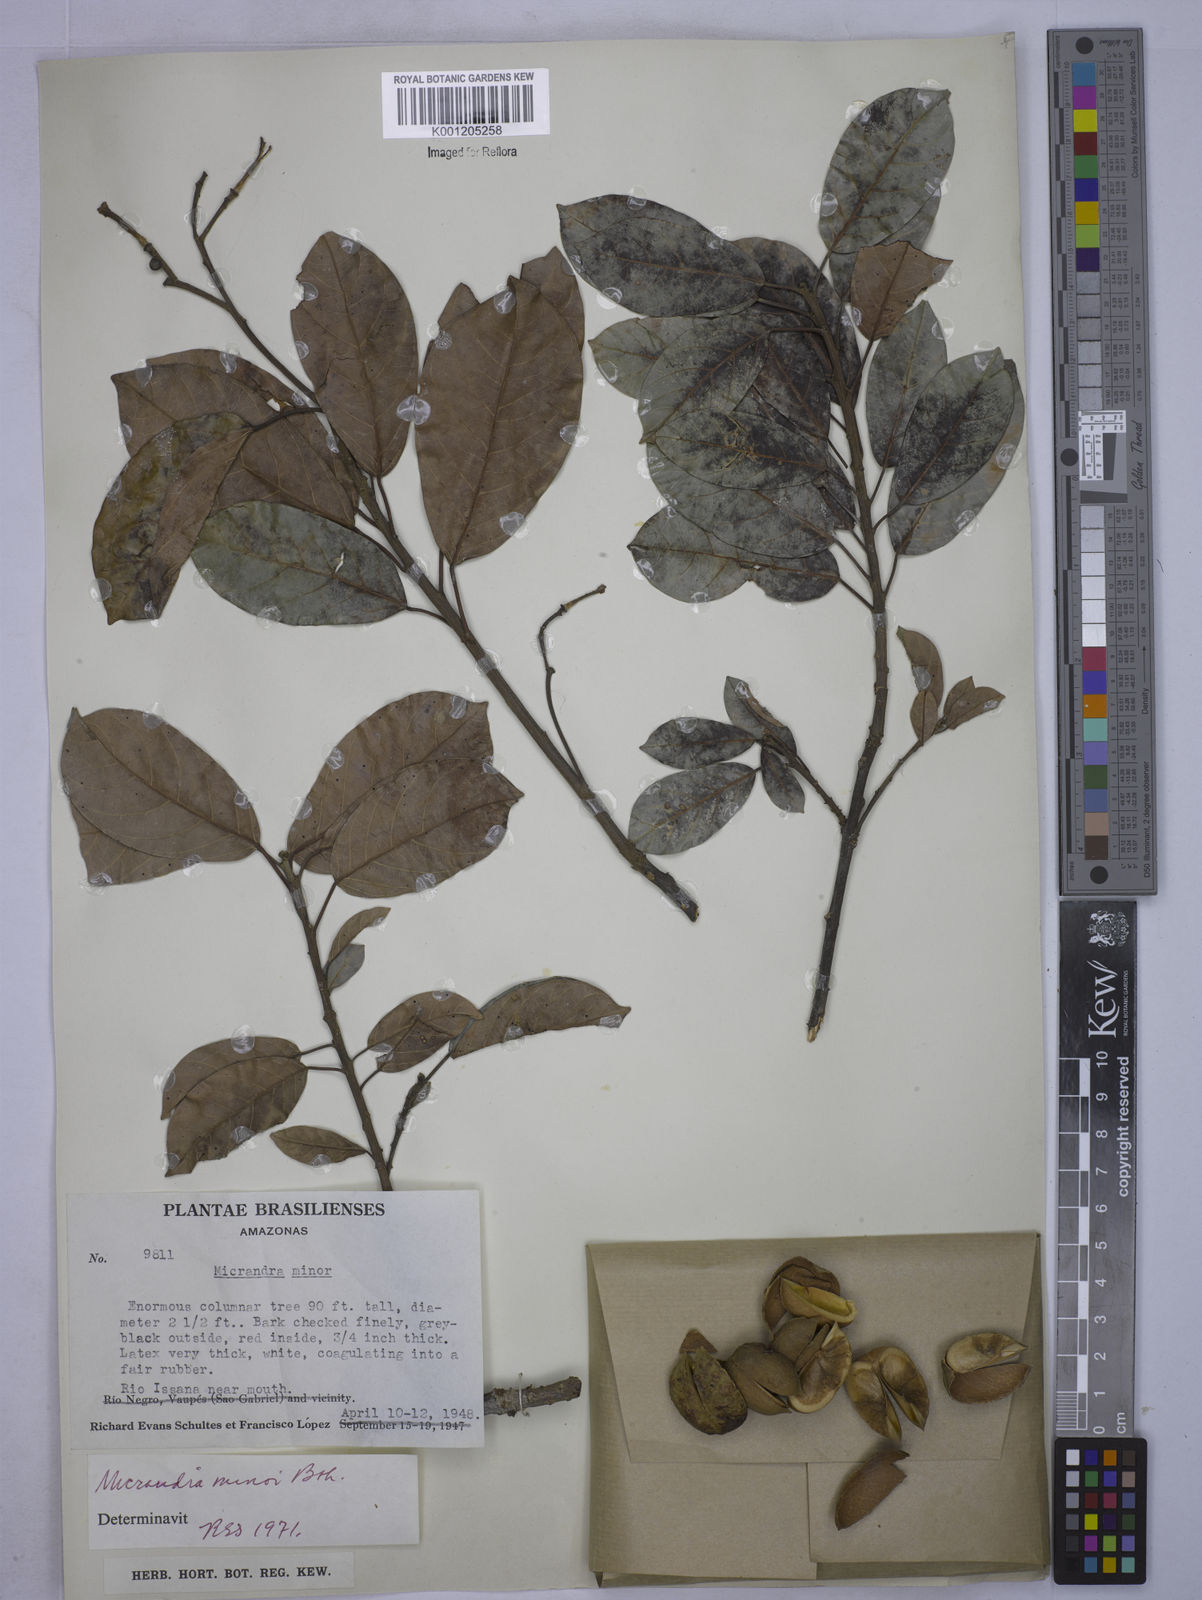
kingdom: Plantae
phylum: Tracheophyta
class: Magnoliopsida
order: Malpighiales
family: Euphorbiaceae
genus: Micrandra
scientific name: Micrandra minor
